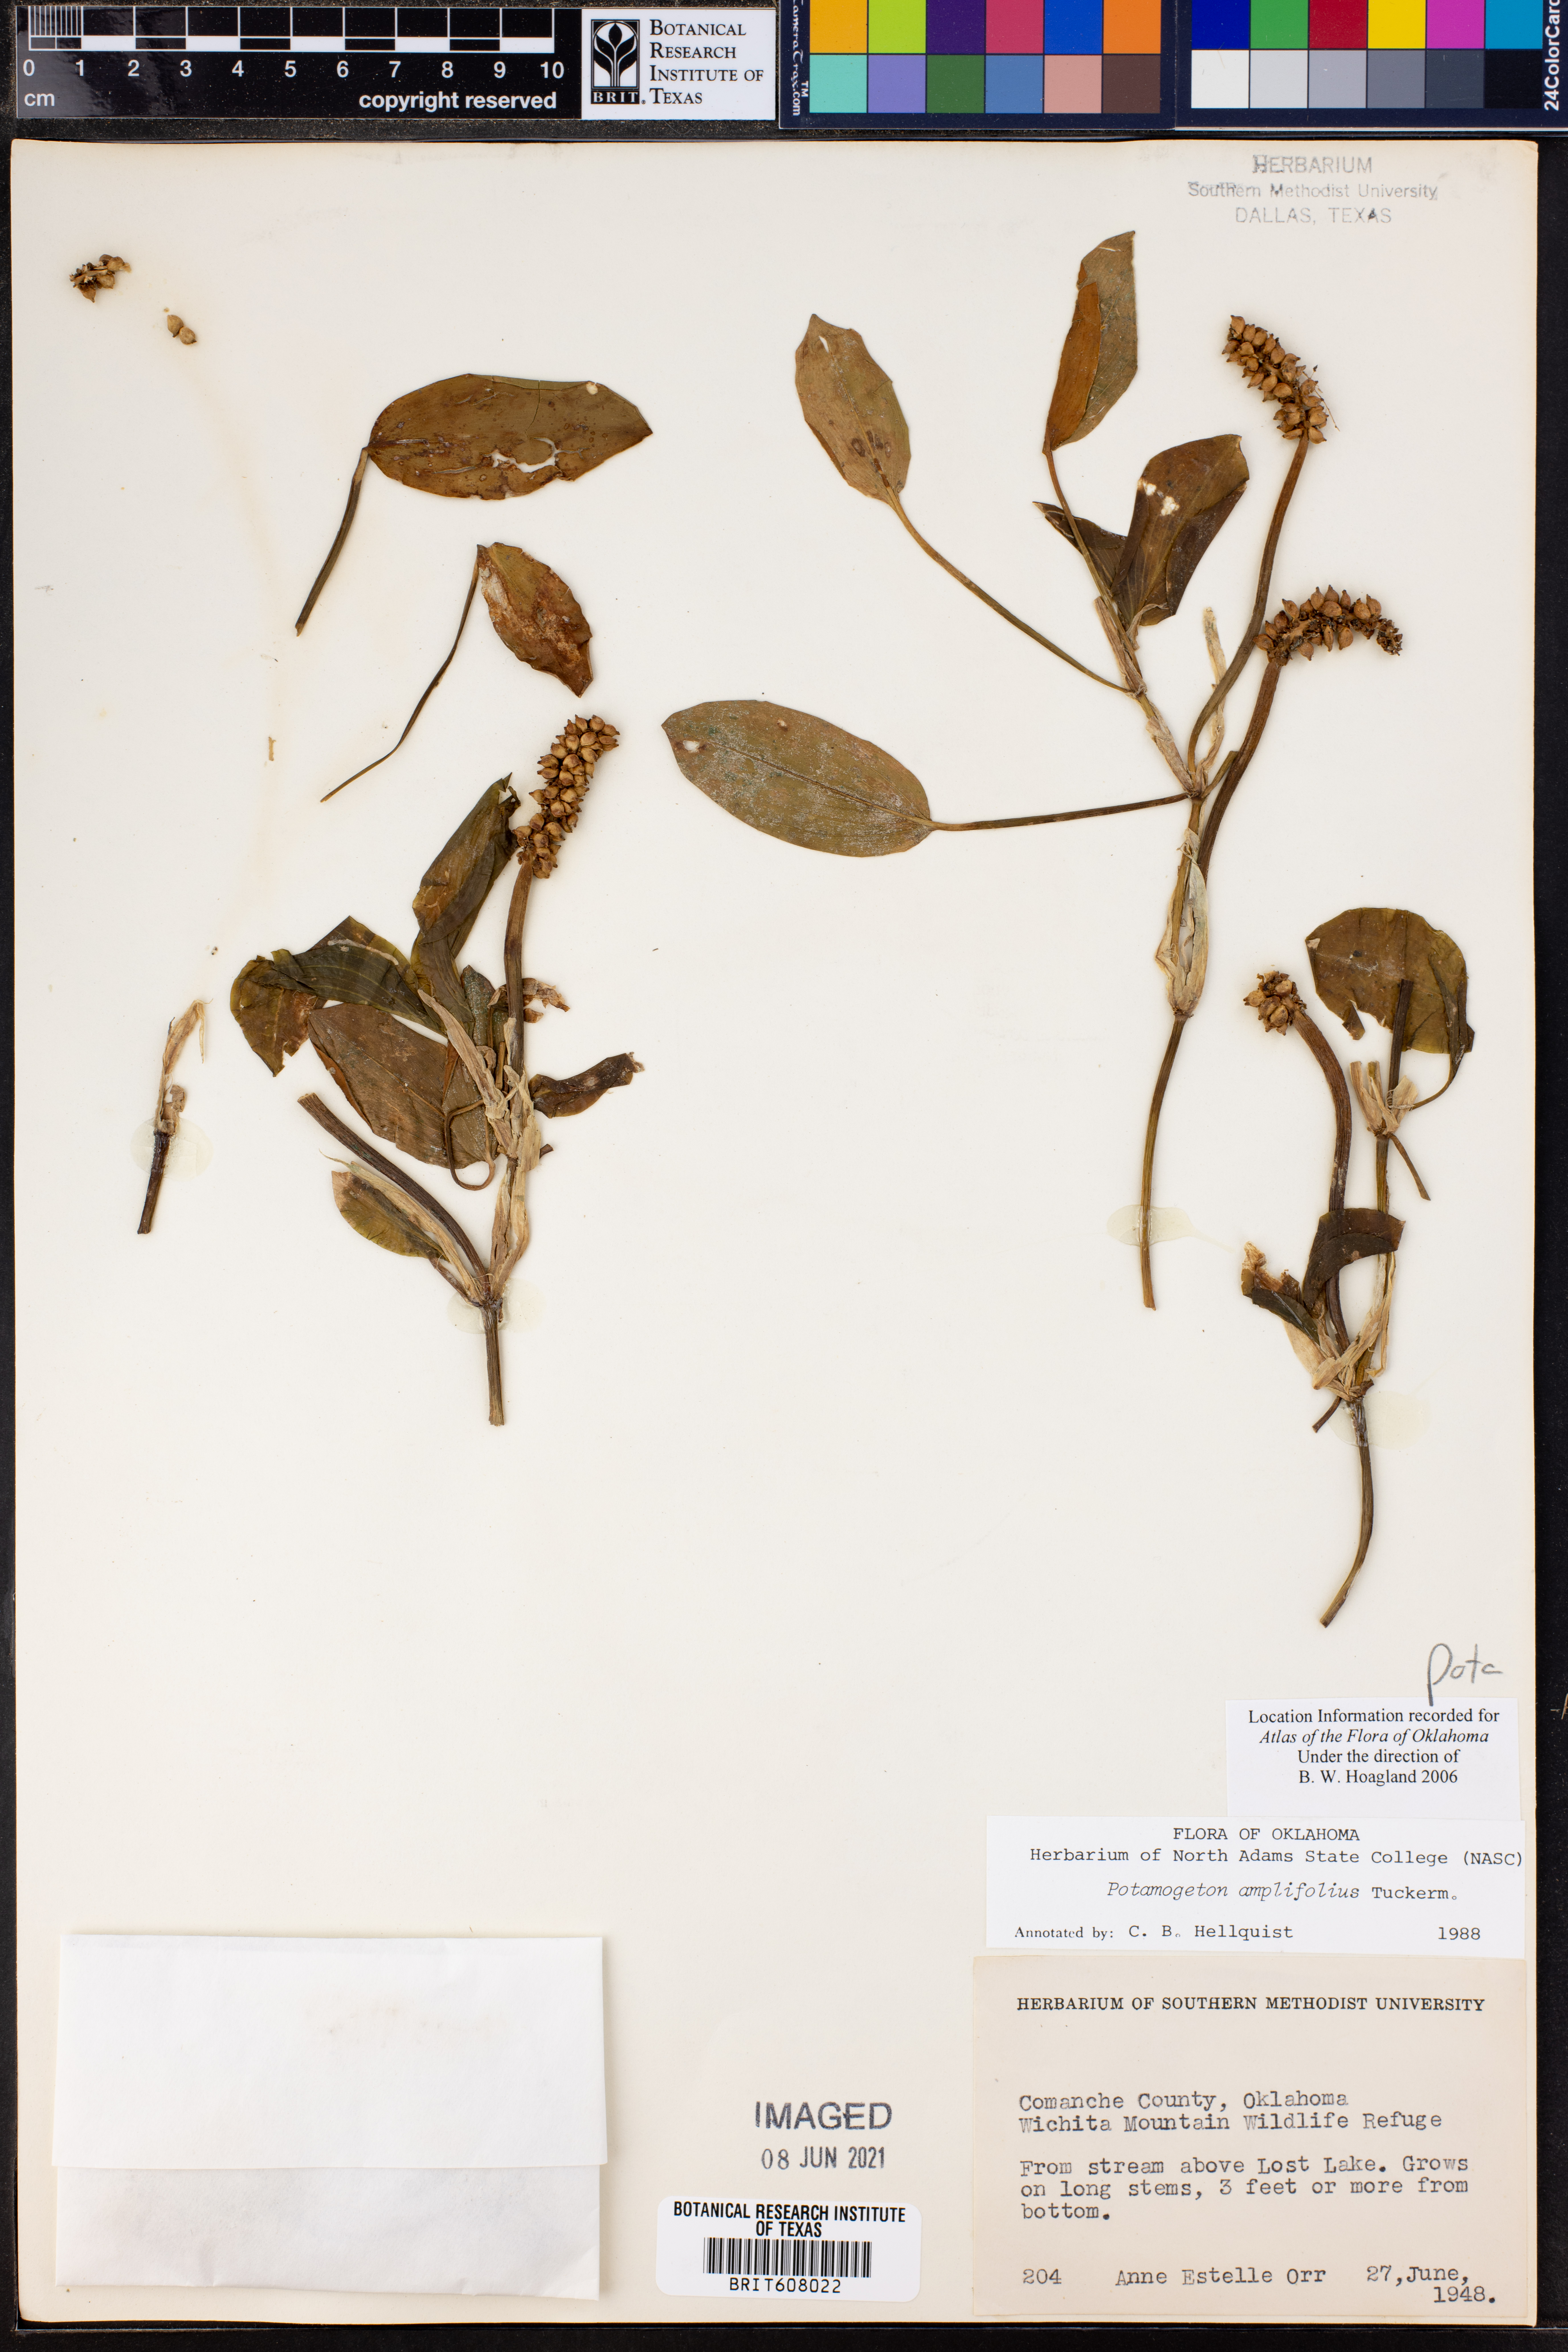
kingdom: Plantae
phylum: Tracheophyta
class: Liliopsida
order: Alismatales
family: Potamogetonaceae
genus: Potamogeton
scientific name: Potamogeton amplifolius
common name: Broad-leaved pondweed
